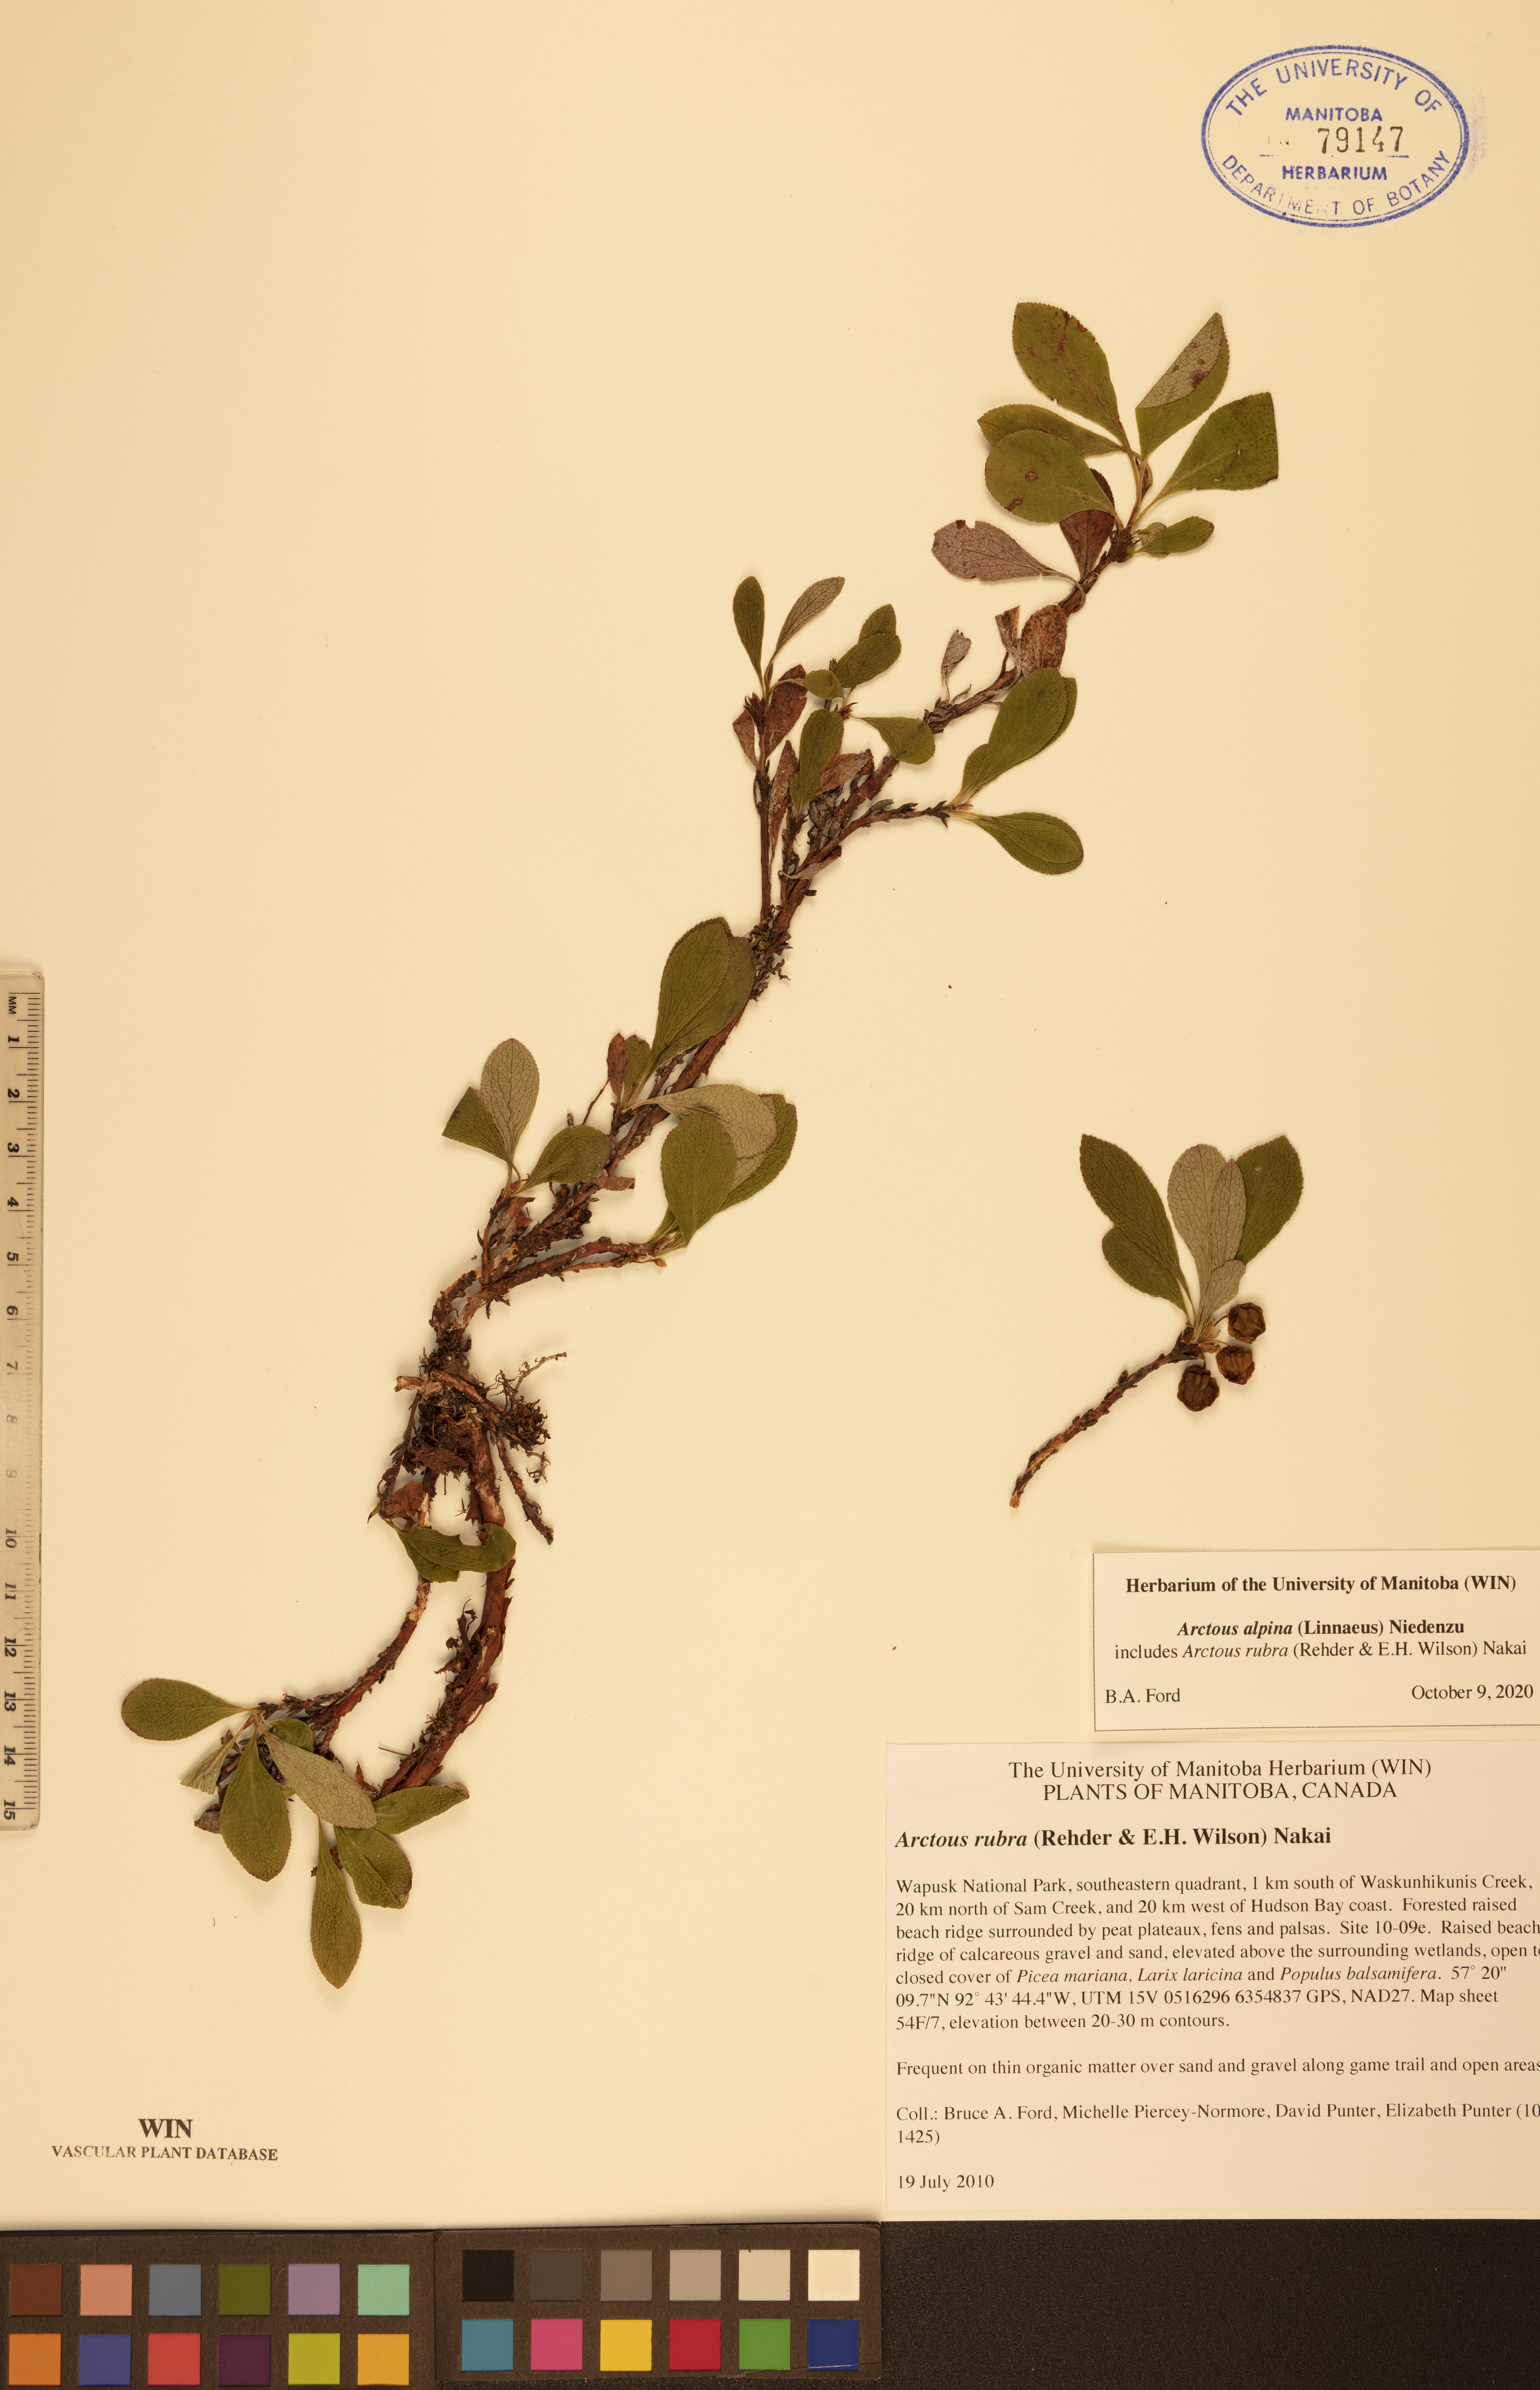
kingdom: Plantae
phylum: Tracheophyta
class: Magnoliopsida
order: Ericales
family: Ericaceae
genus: Arctostaphylos
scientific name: Arctostaphylos alpinus
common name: Alpine bearberry
